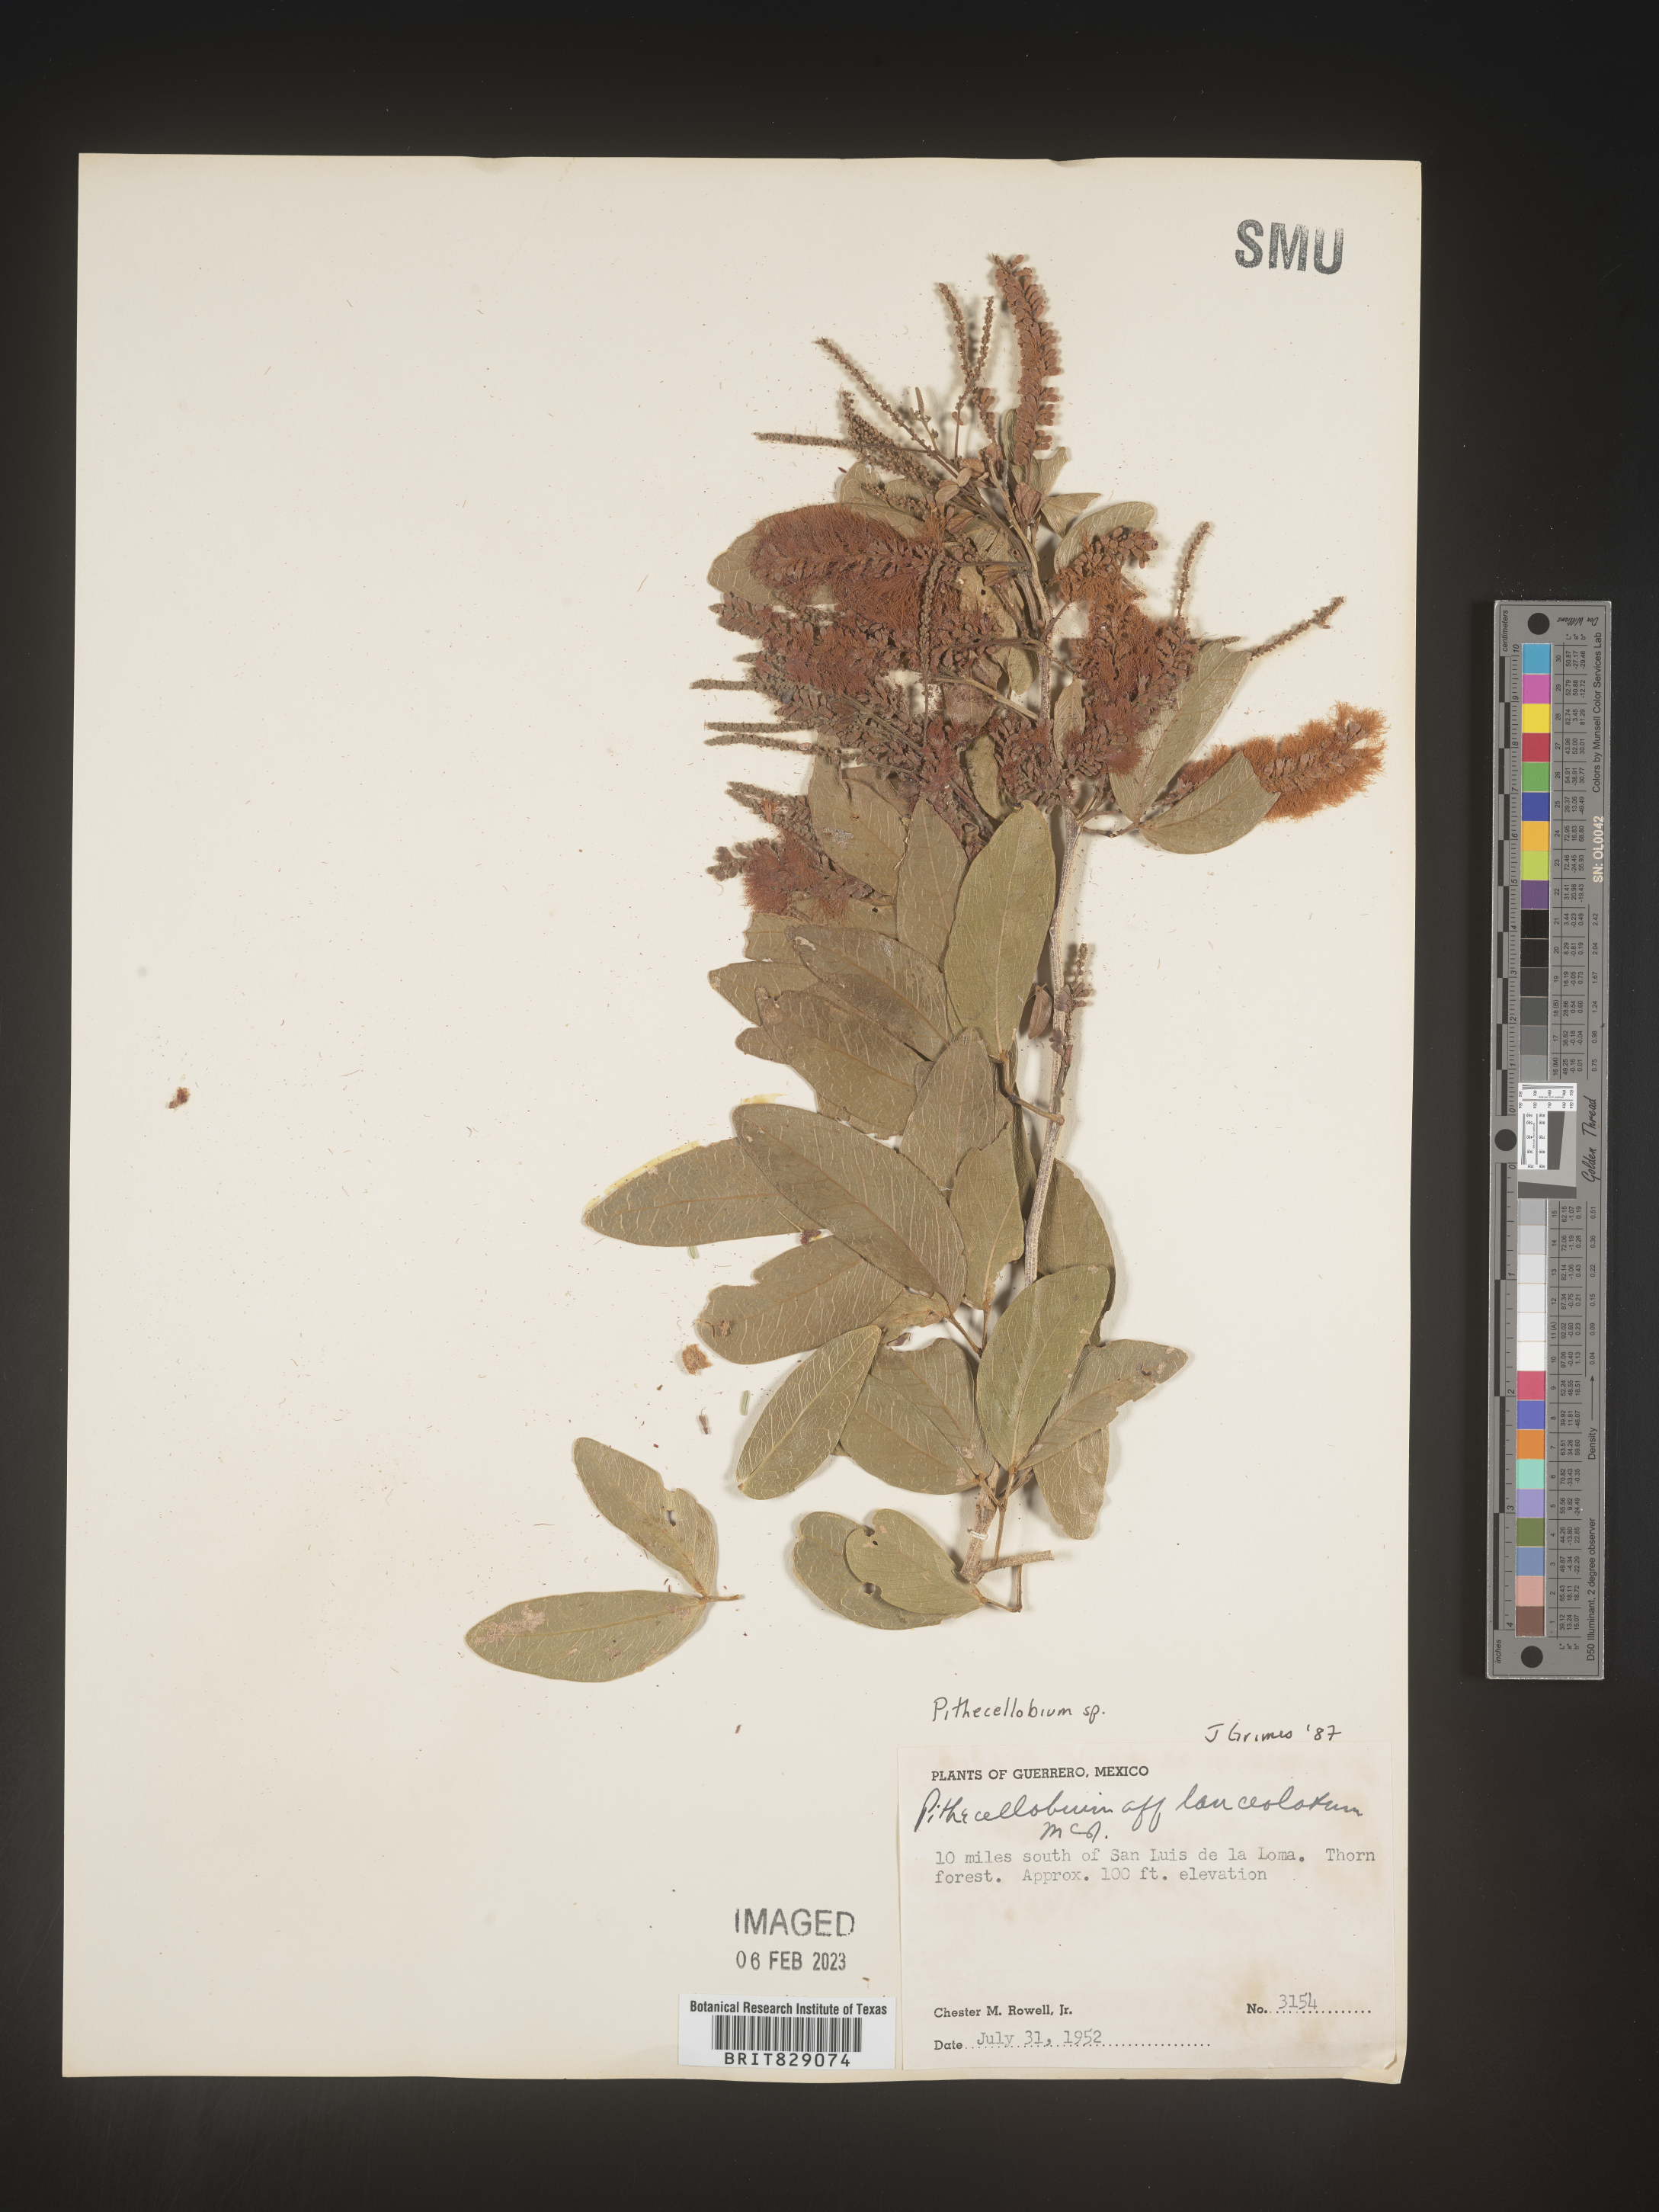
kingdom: Plantae
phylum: Tracheophyta
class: Magnoliopsida
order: Fabales
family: Fabaceae
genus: Pithecellobium
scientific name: Pithecellobium
